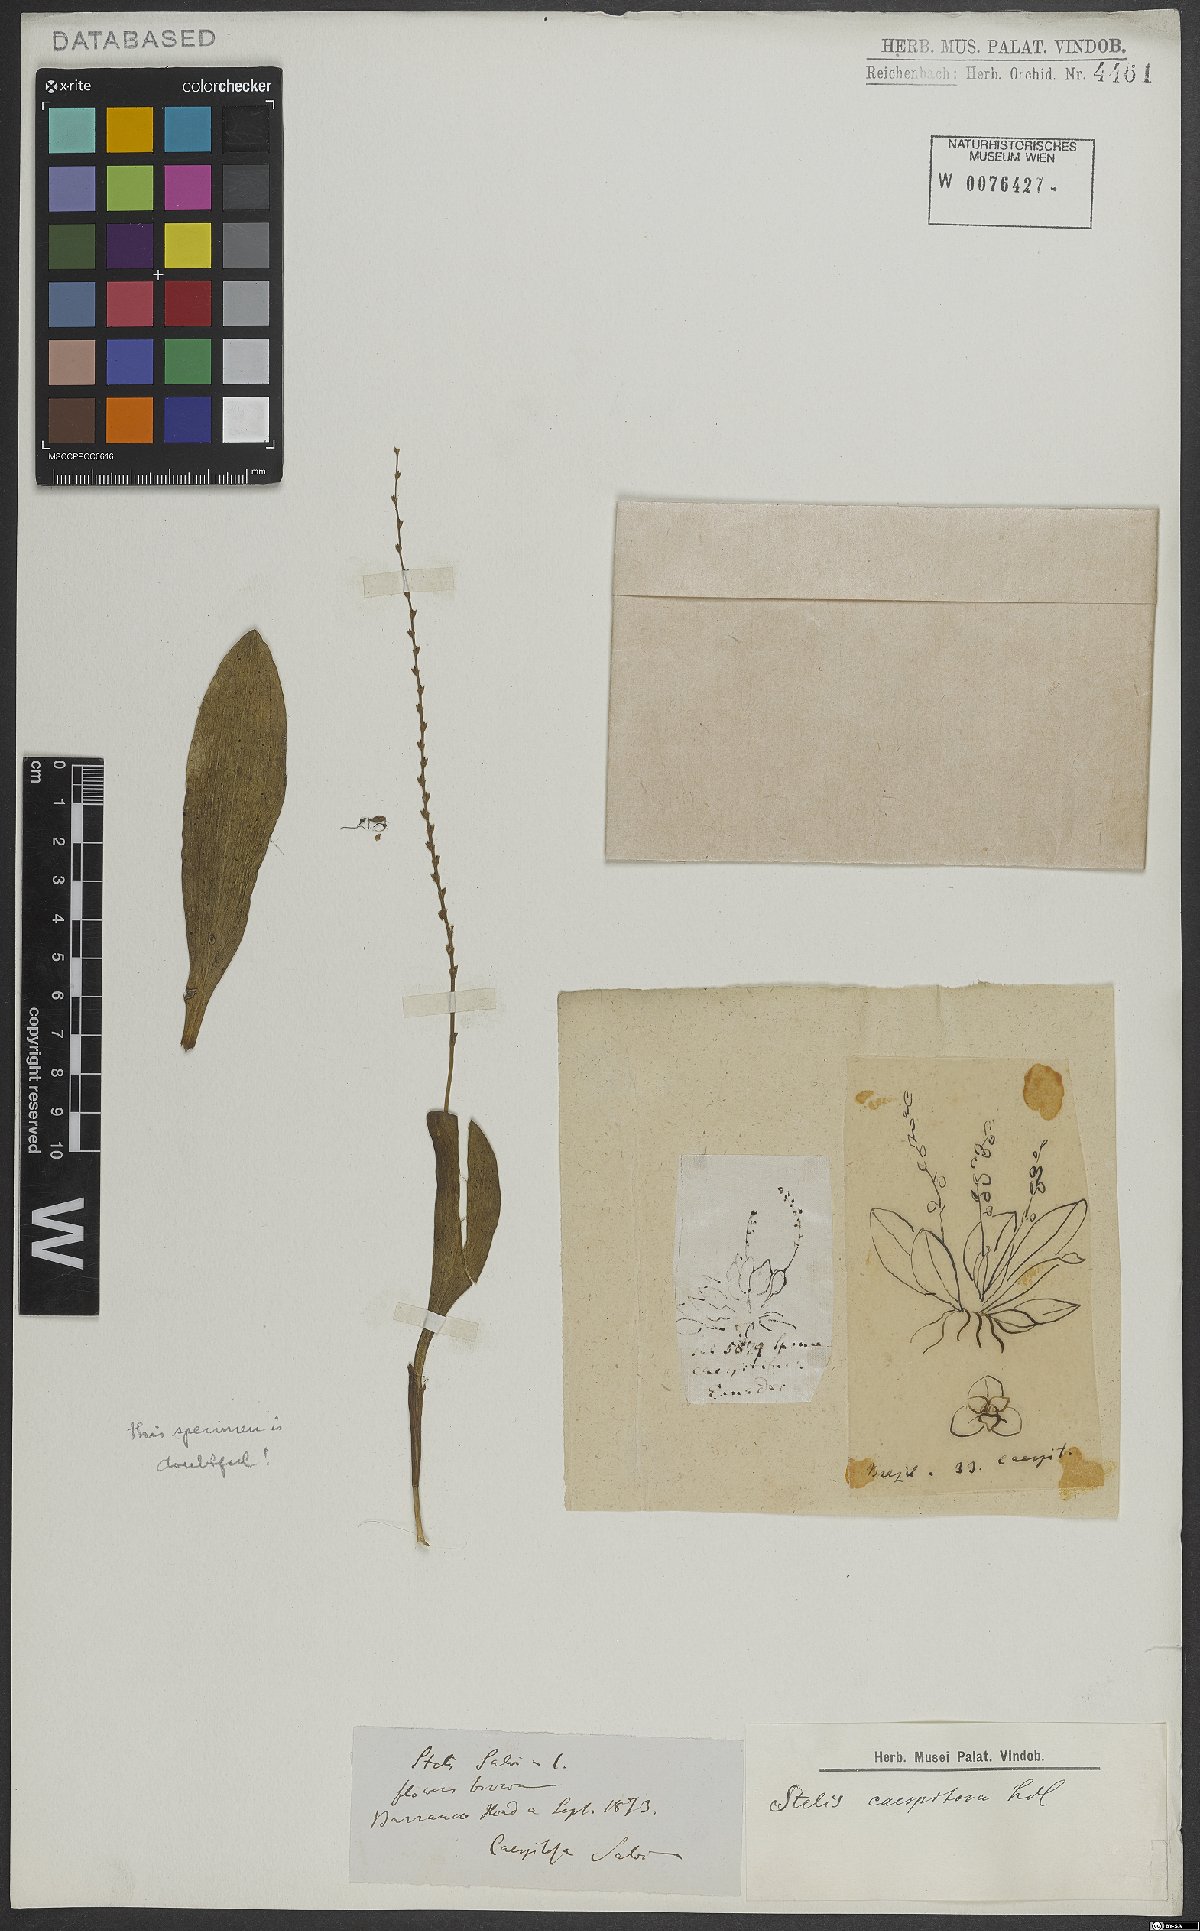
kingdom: Plantae
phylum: Tracheophyta
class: Liliopsida
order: Asparagales
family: Orchidaceae
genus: Stelis
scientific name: Stelis caespitosa
